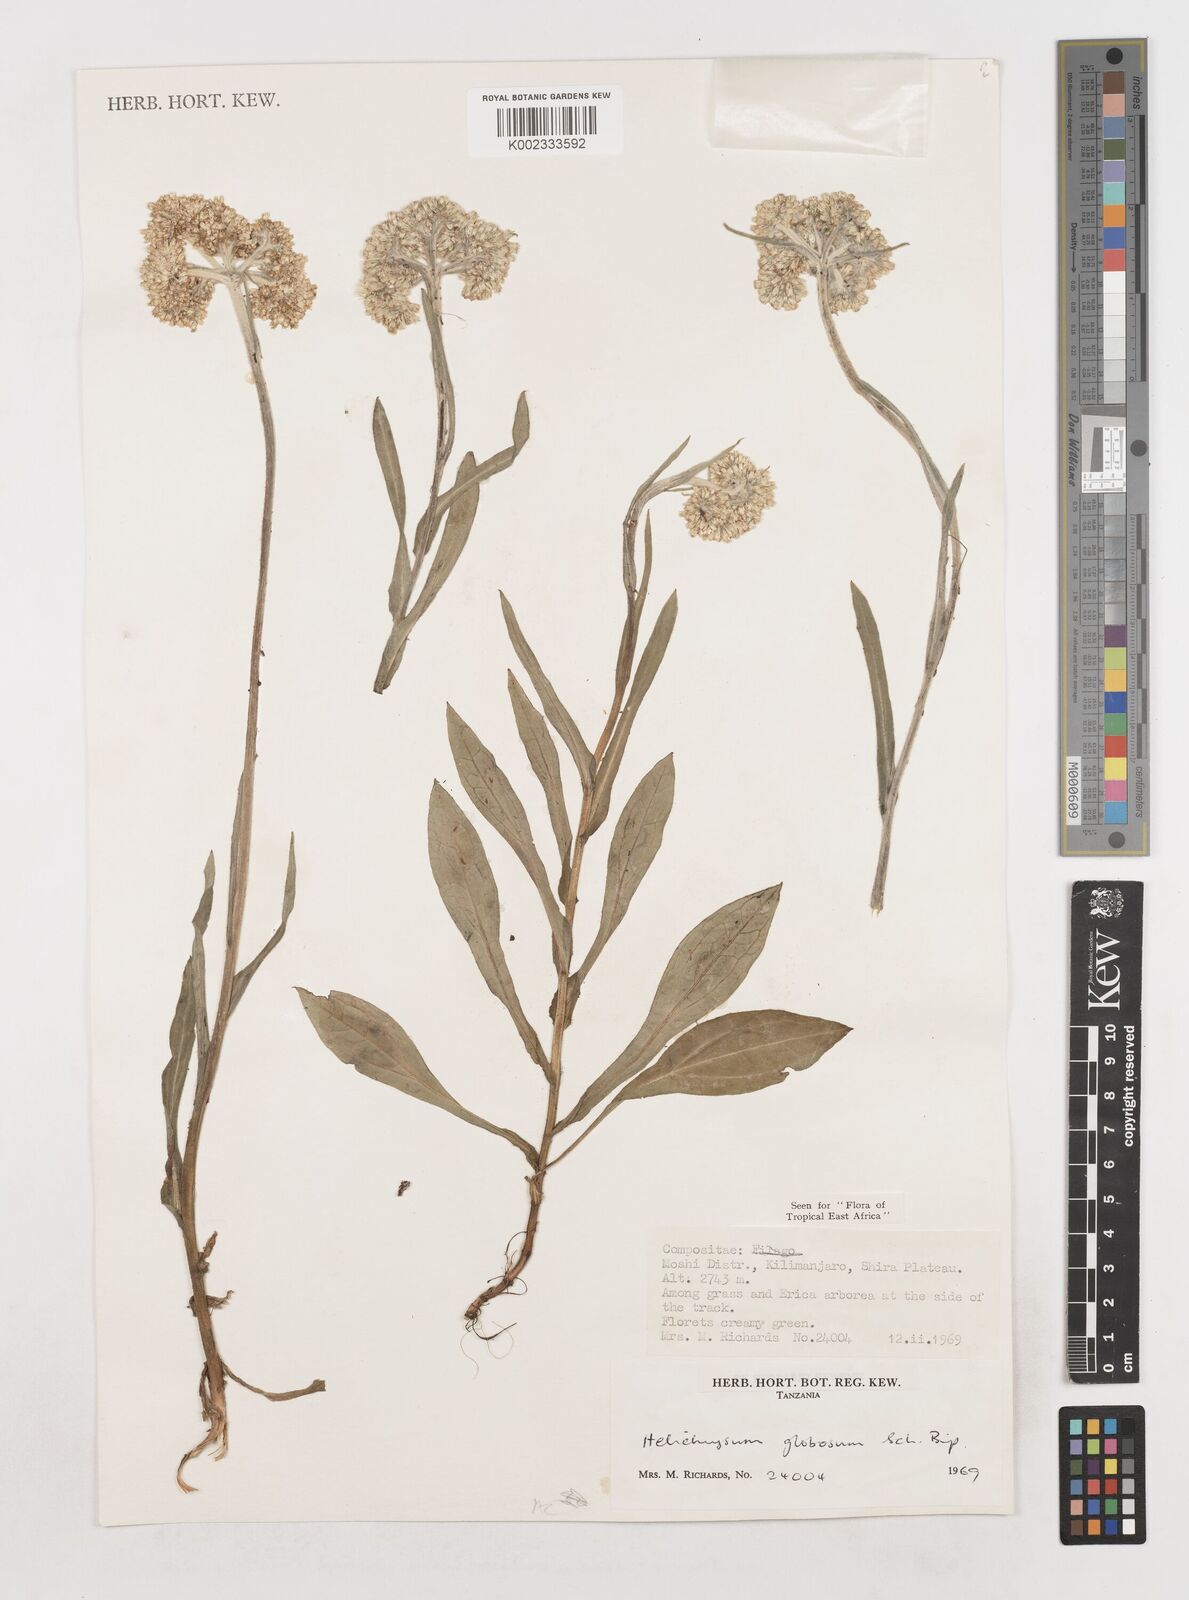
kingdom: Plantae
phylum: Tracheophyta
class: Magnoliopsida
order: Asterales
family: Asteraceae
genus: Helichrysum
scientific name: Helichrysum globosum
